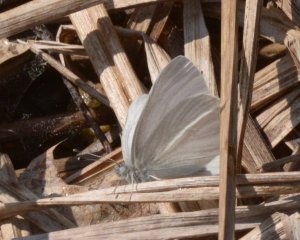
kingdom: Animalia
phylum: Arthropoda
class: Insecta
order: Lepidoptera
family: Pieridae
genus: Pieris
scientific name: Pieris virginiensis
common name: West Virginia White
